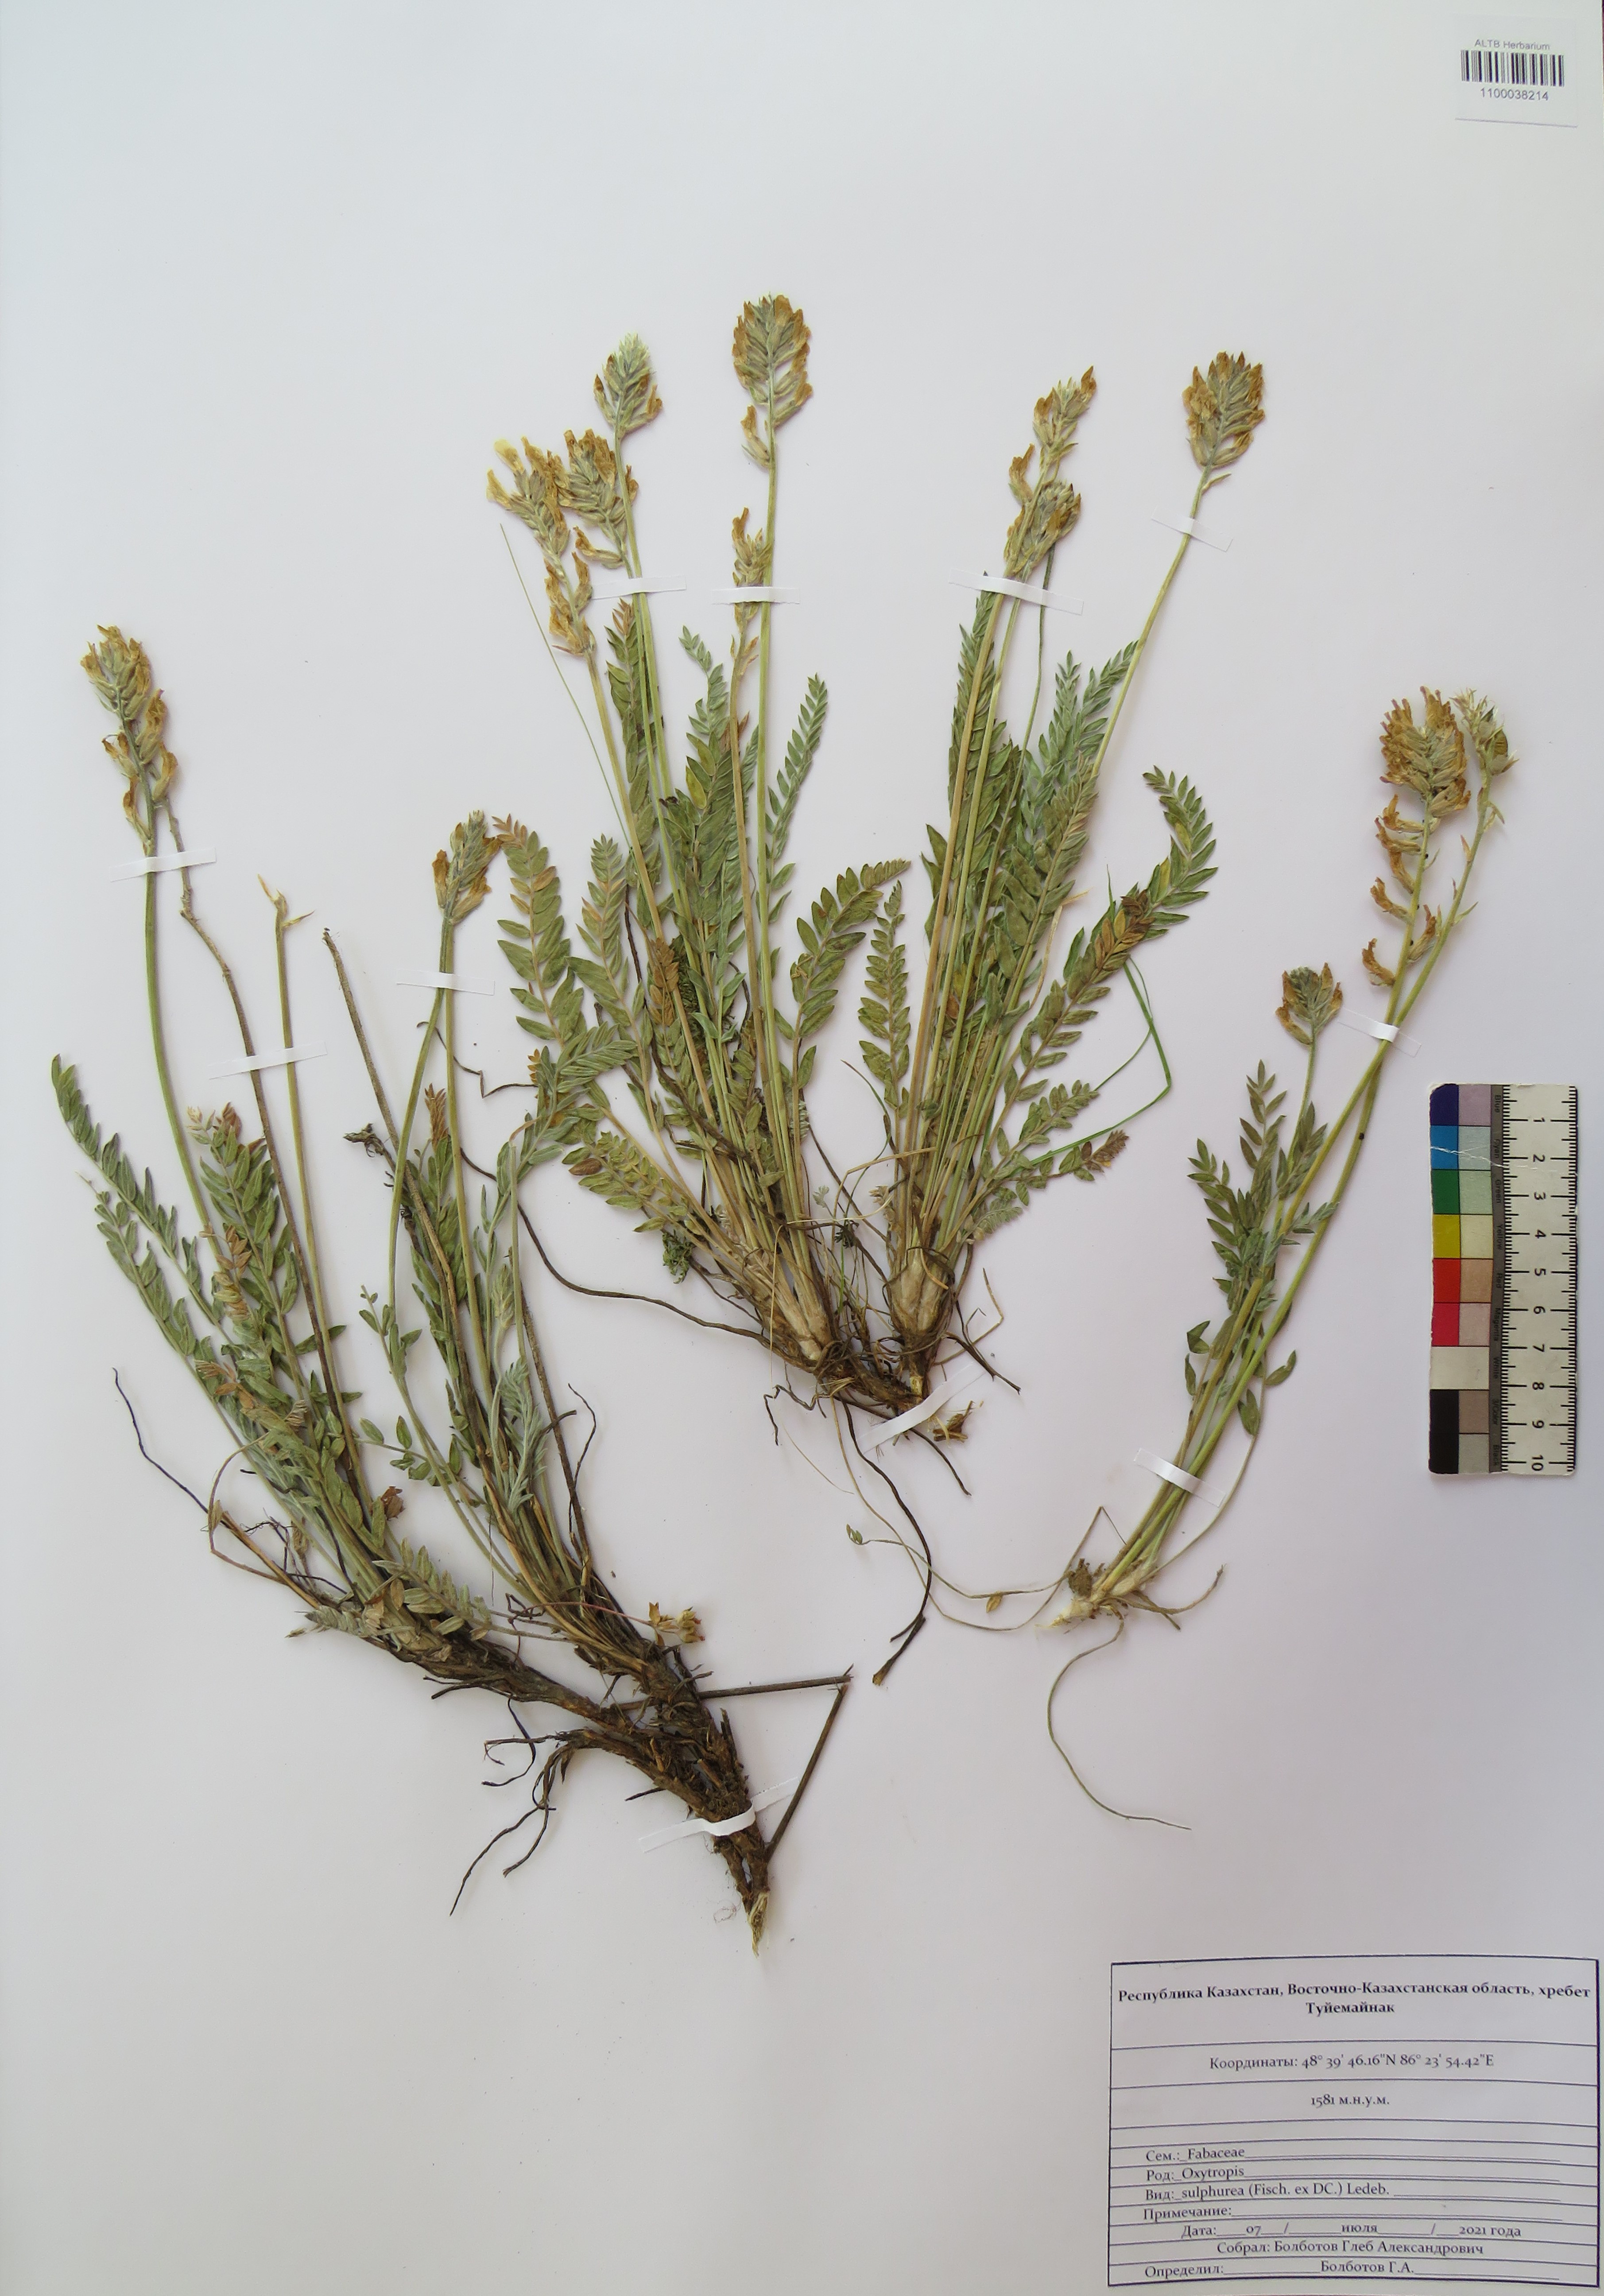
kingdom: Plantae
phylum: Tracheophyta
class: Magnoliopsida
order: Fabales
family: Fabaceae
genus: Oxytropis
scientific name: Oxytropis sulphurea
